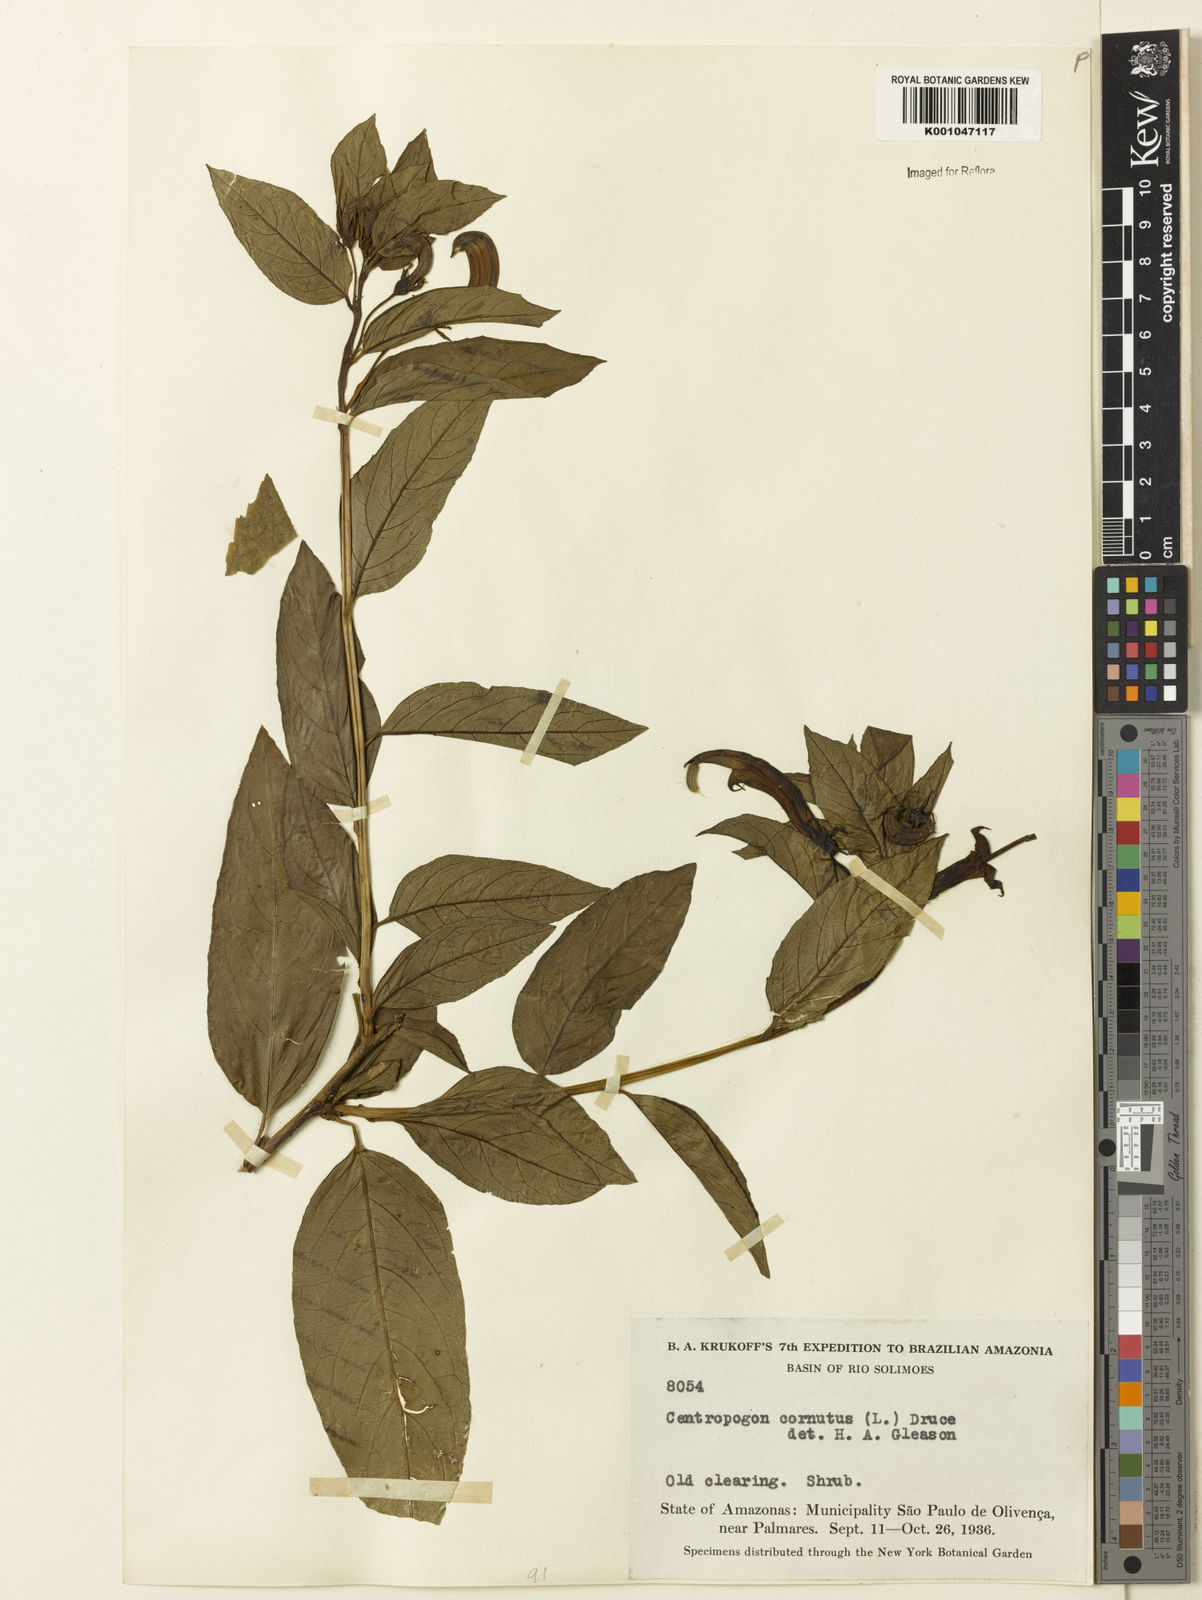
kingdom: Plantae
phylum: Tracheophyta
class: Magnoliopsida
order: Asterales
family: Campanulaceae
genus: Centropogon
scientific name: Centropogon cornutus
